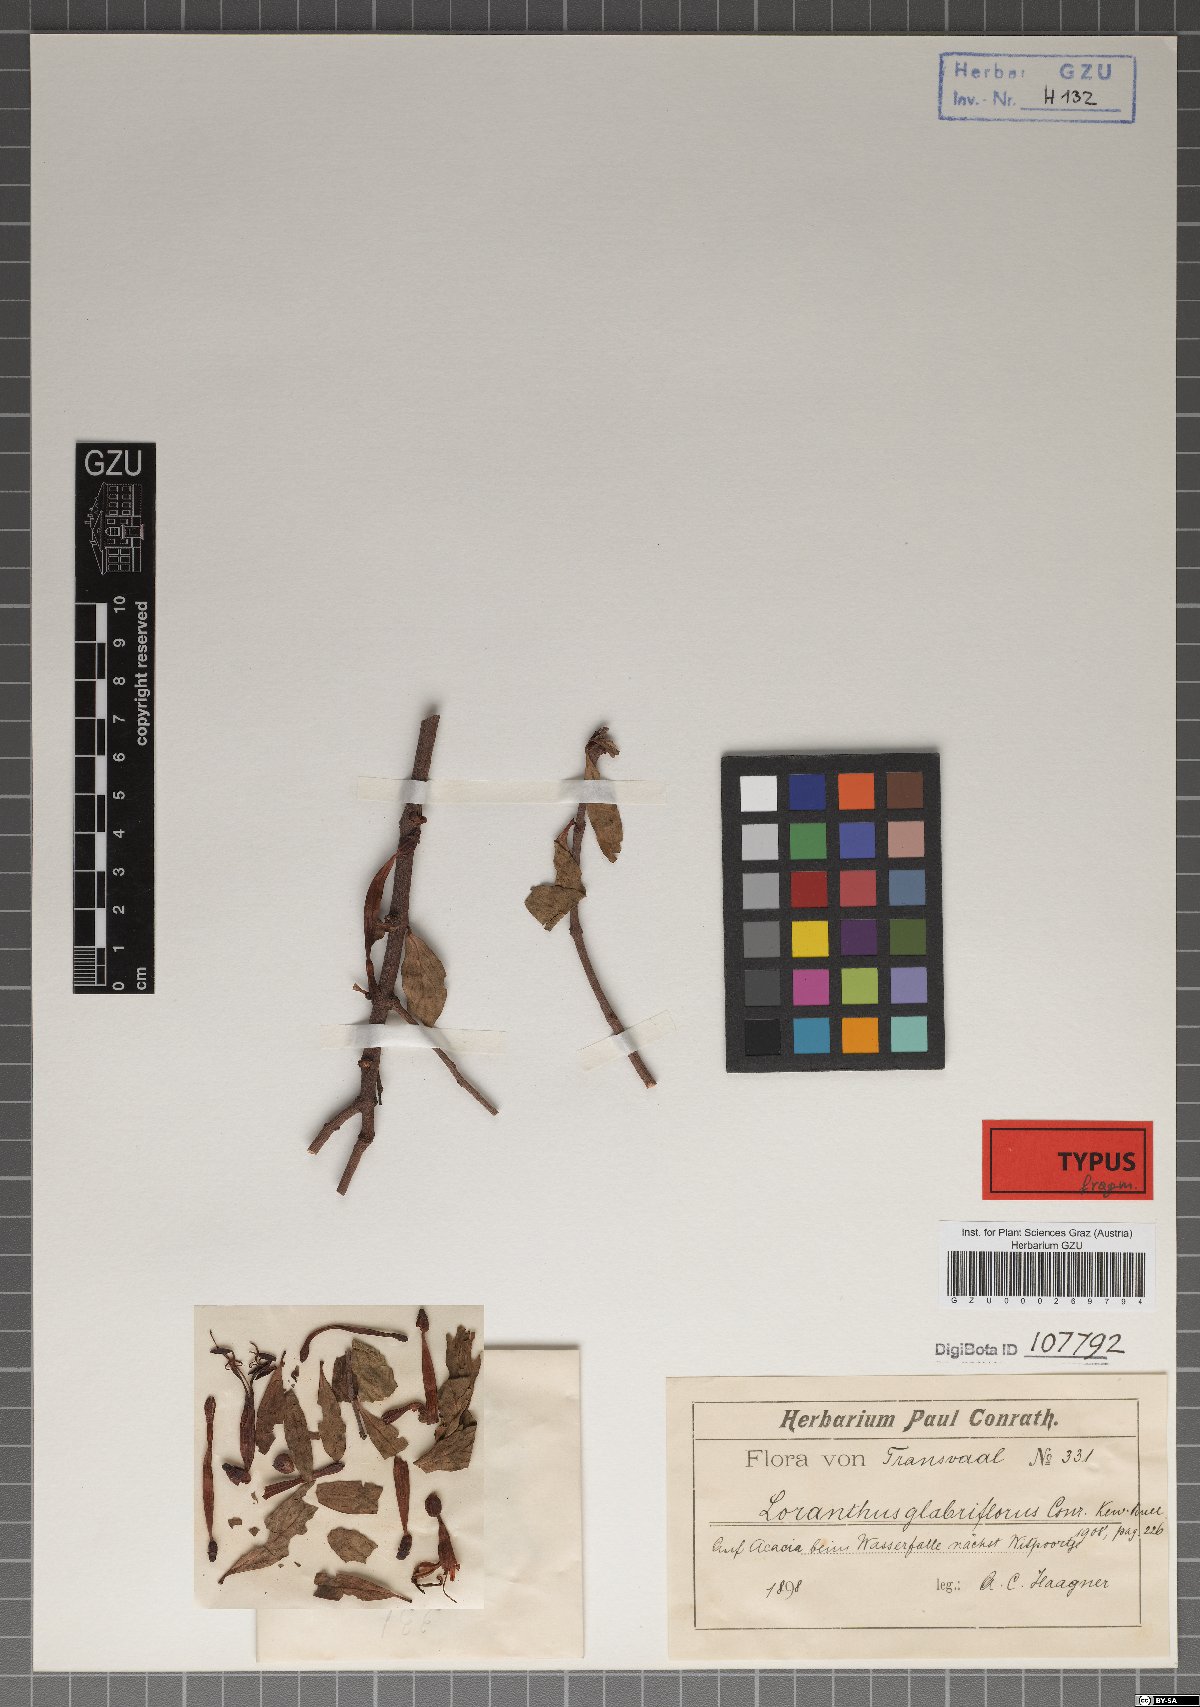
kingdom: Plantae
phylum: Tracheophyta
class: Magnoliopsida
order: Santalales
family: Loranthaceae
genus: Tapinanthus
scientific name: Tapinanthus rubromarginatus
